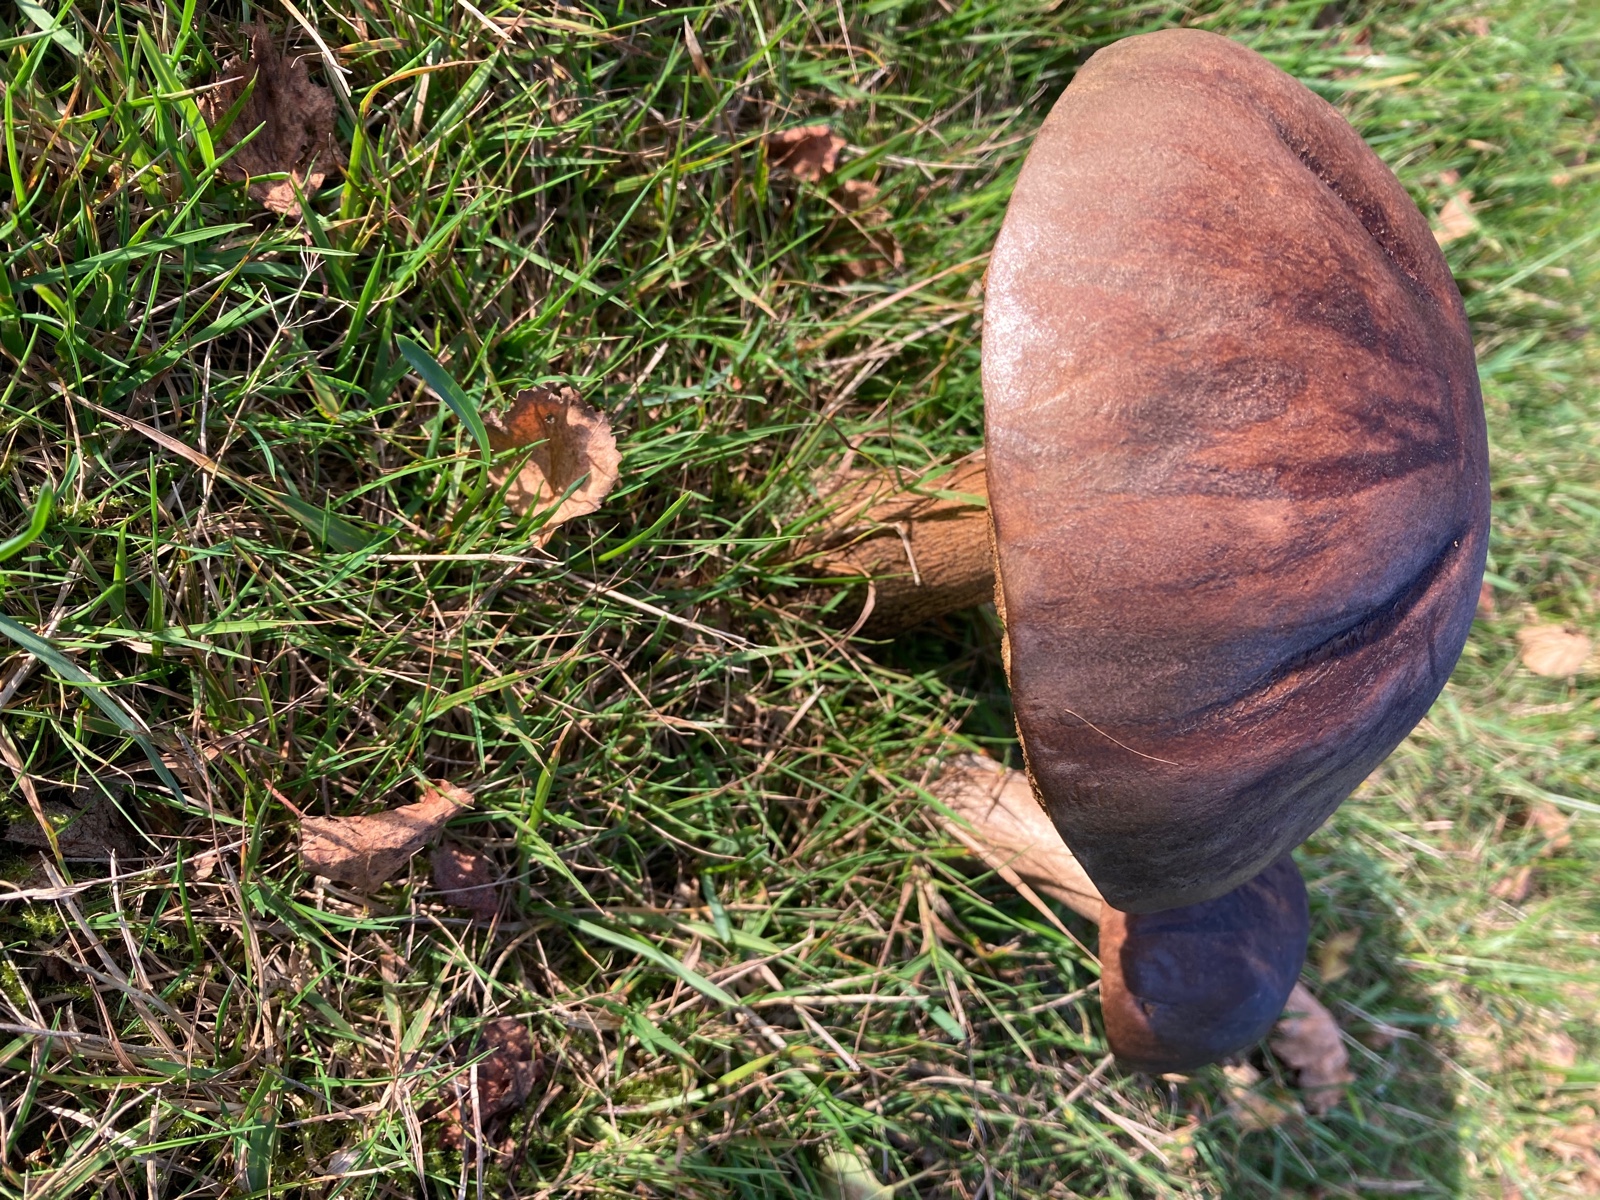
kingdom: Fungi
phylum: Basidiomycota
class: Agaricomycetes
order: Boletales
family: Boletaceae
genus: Leccinum
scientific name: Leccinum scabrum
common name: brun skælrørhat
